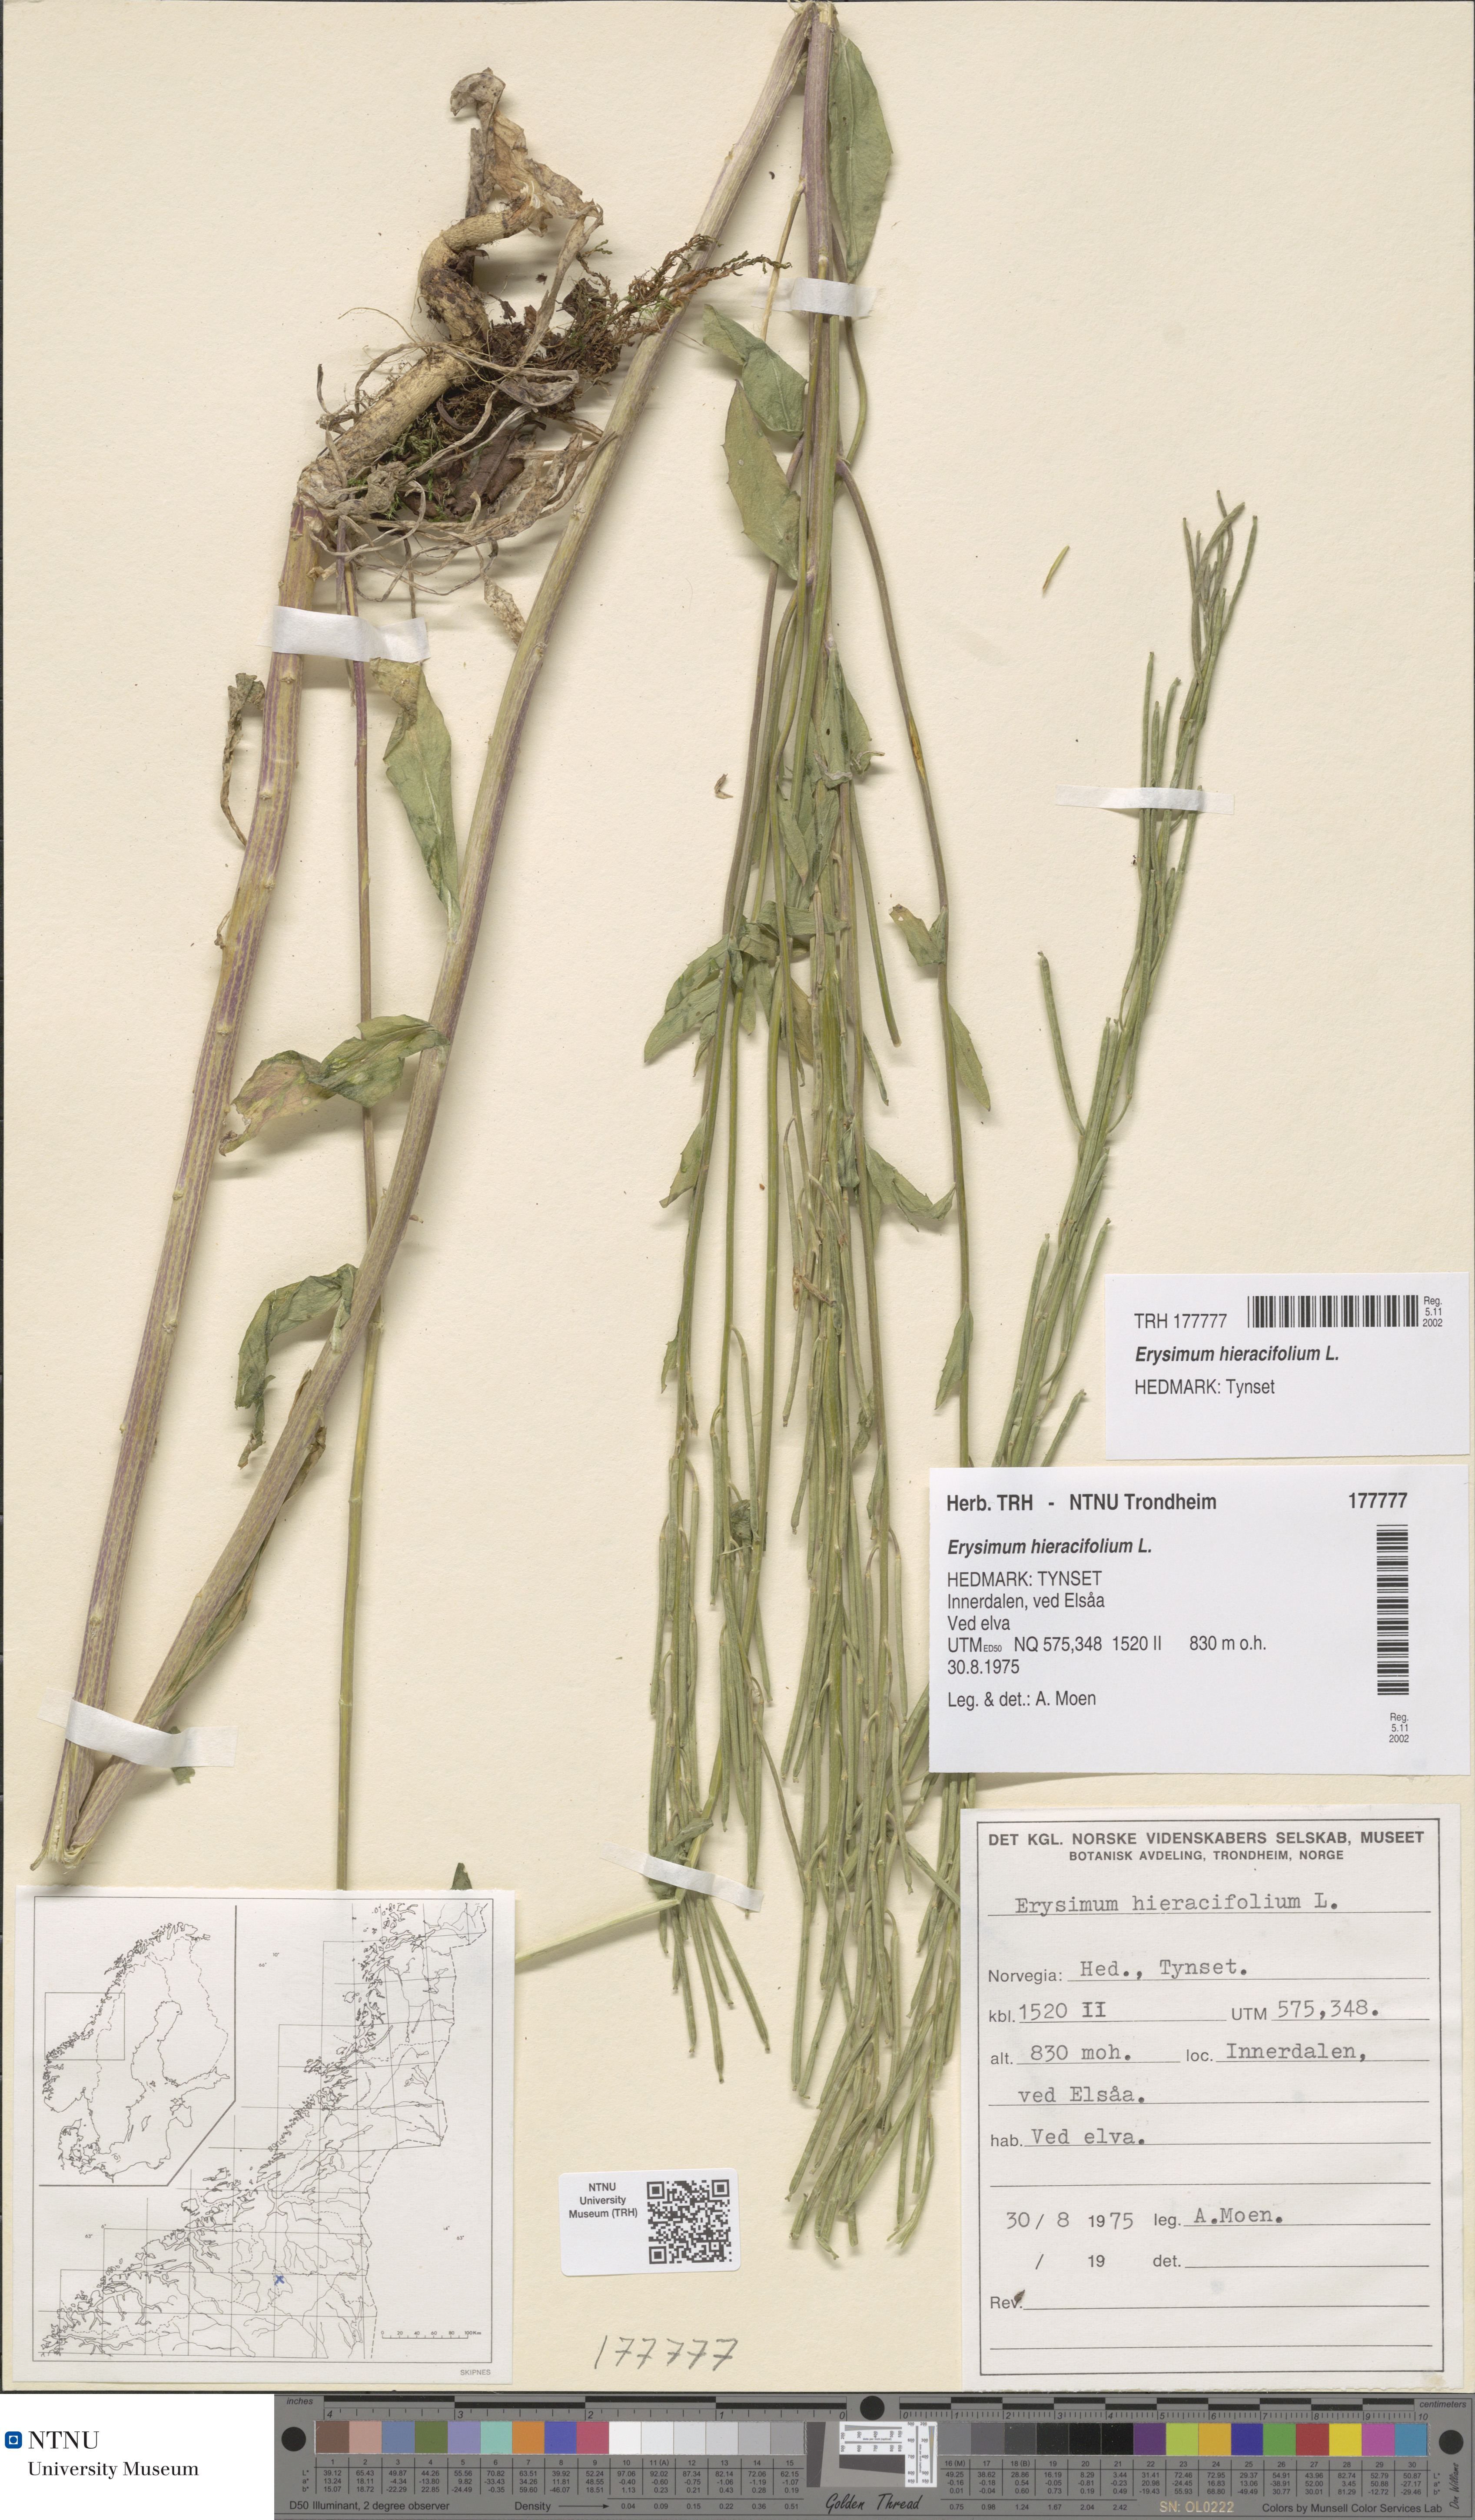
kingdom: Plantae
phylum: Tracheophyta
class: Magnoliopsida
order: Brassicales
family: Brassicaceae
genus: Erysimum
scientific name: Erysimum virgatum
